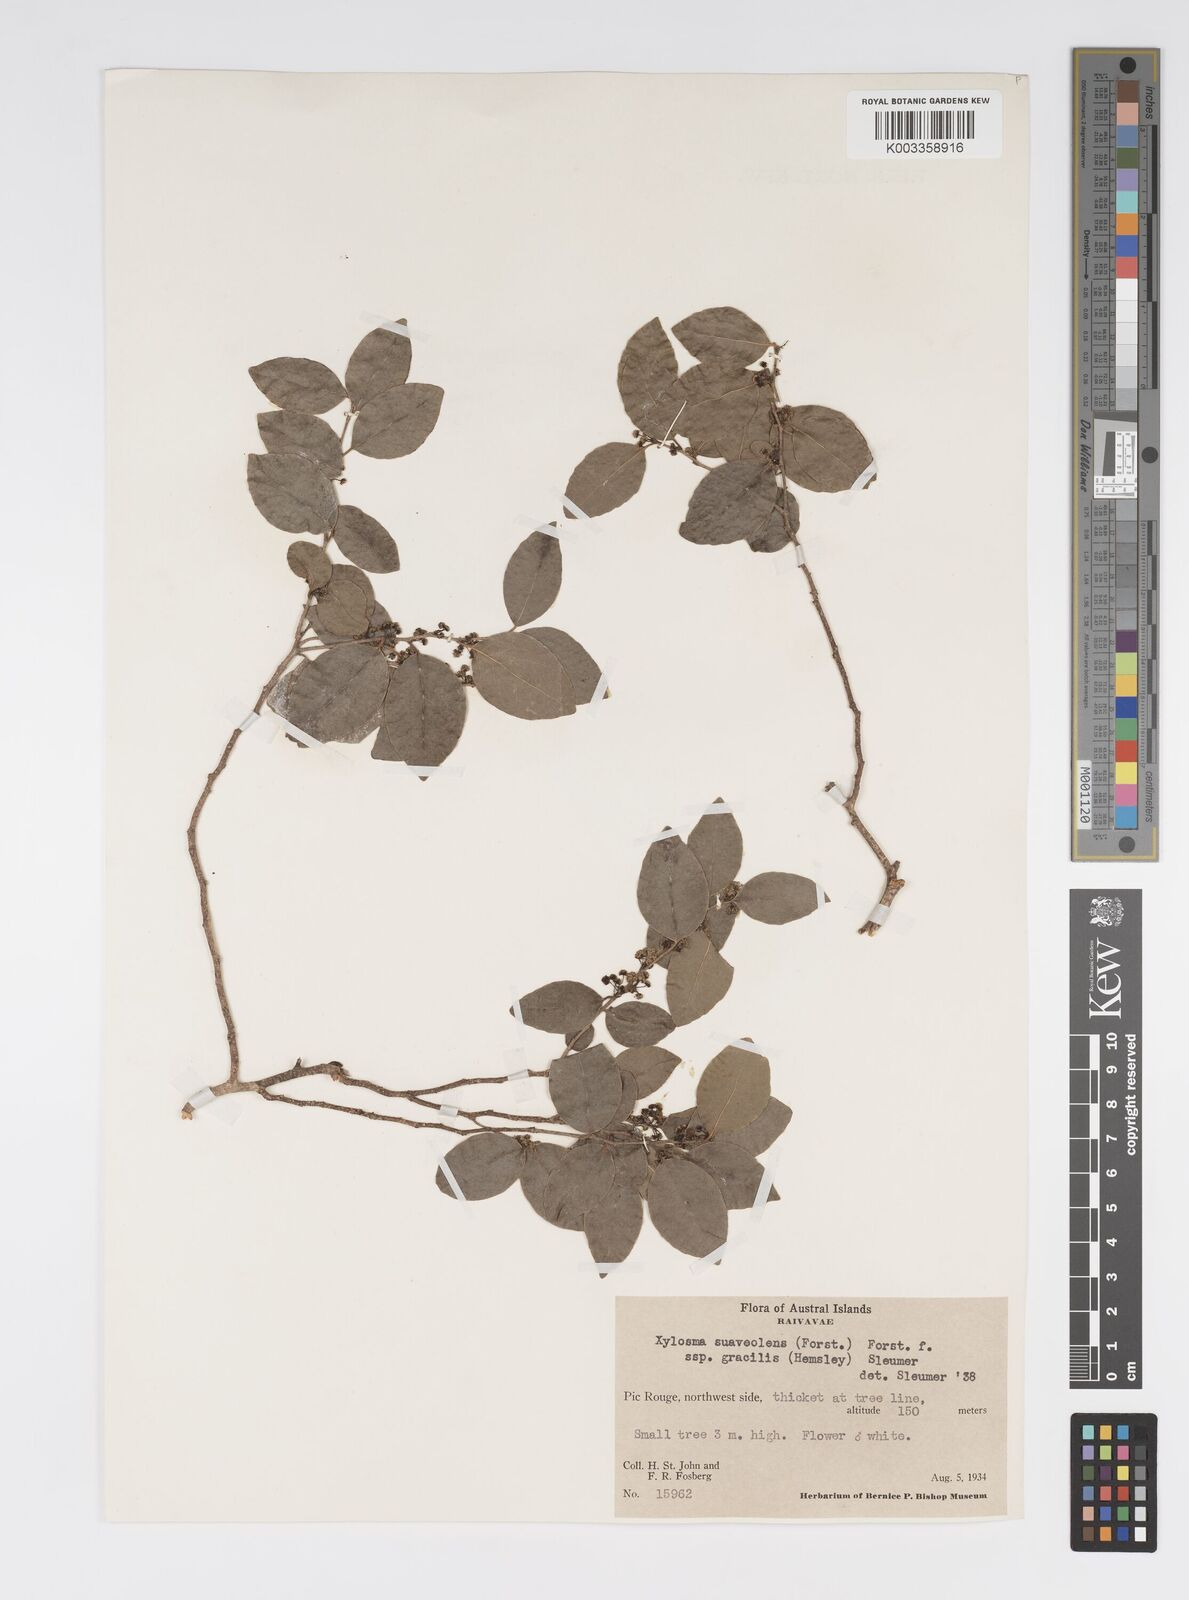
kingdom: Plantae
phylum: Tracheophyta
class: Magnoliopsida
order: Malpighiales
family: Salicaceae
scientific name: Salicaceae
